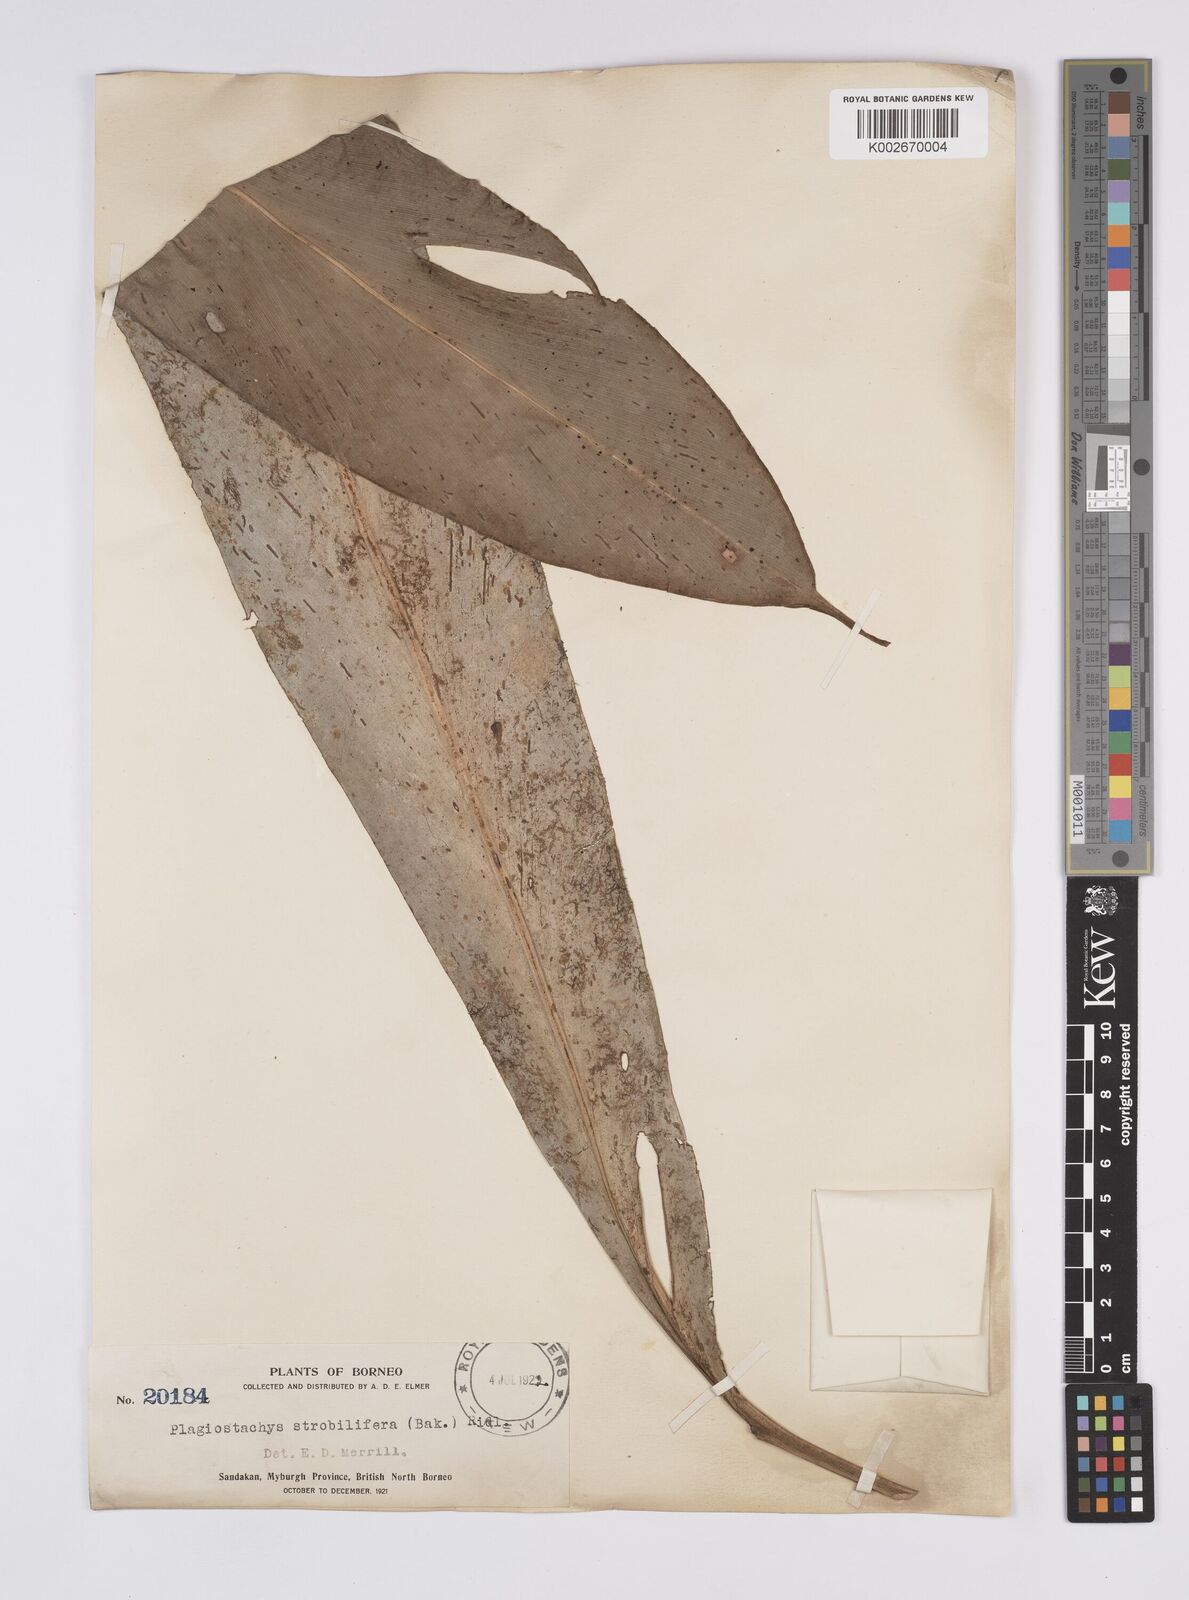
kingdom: Plantae
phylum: Tracheophyta
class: Liliopsida
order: Zingiberales
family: Zingiberaceae
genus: Plagiostachys
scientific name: Plagiostachys strobilifera
